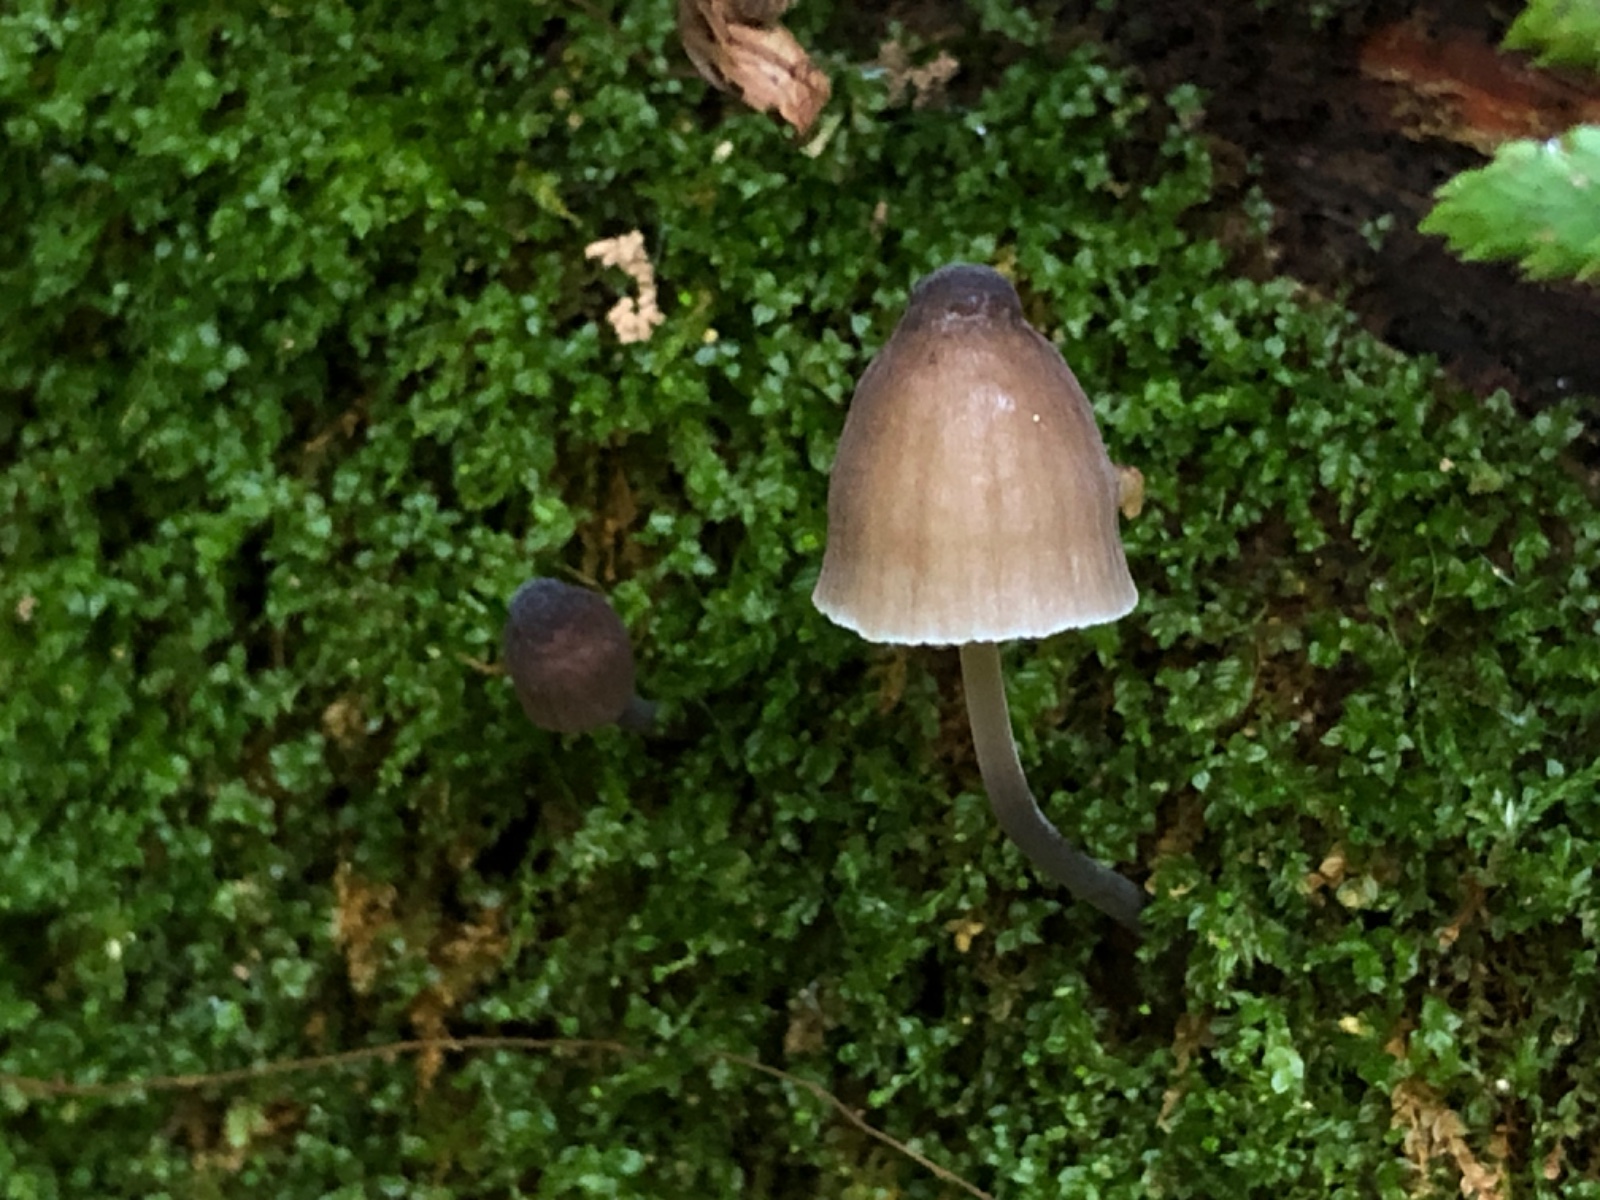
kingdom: Fungi
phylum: Basidiomycota
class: Agaricomycetes
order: Agaricales
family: Mycenaceae
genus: Mycena
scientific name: Mycena silvae-nigrae
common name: tidlig huesvamp
